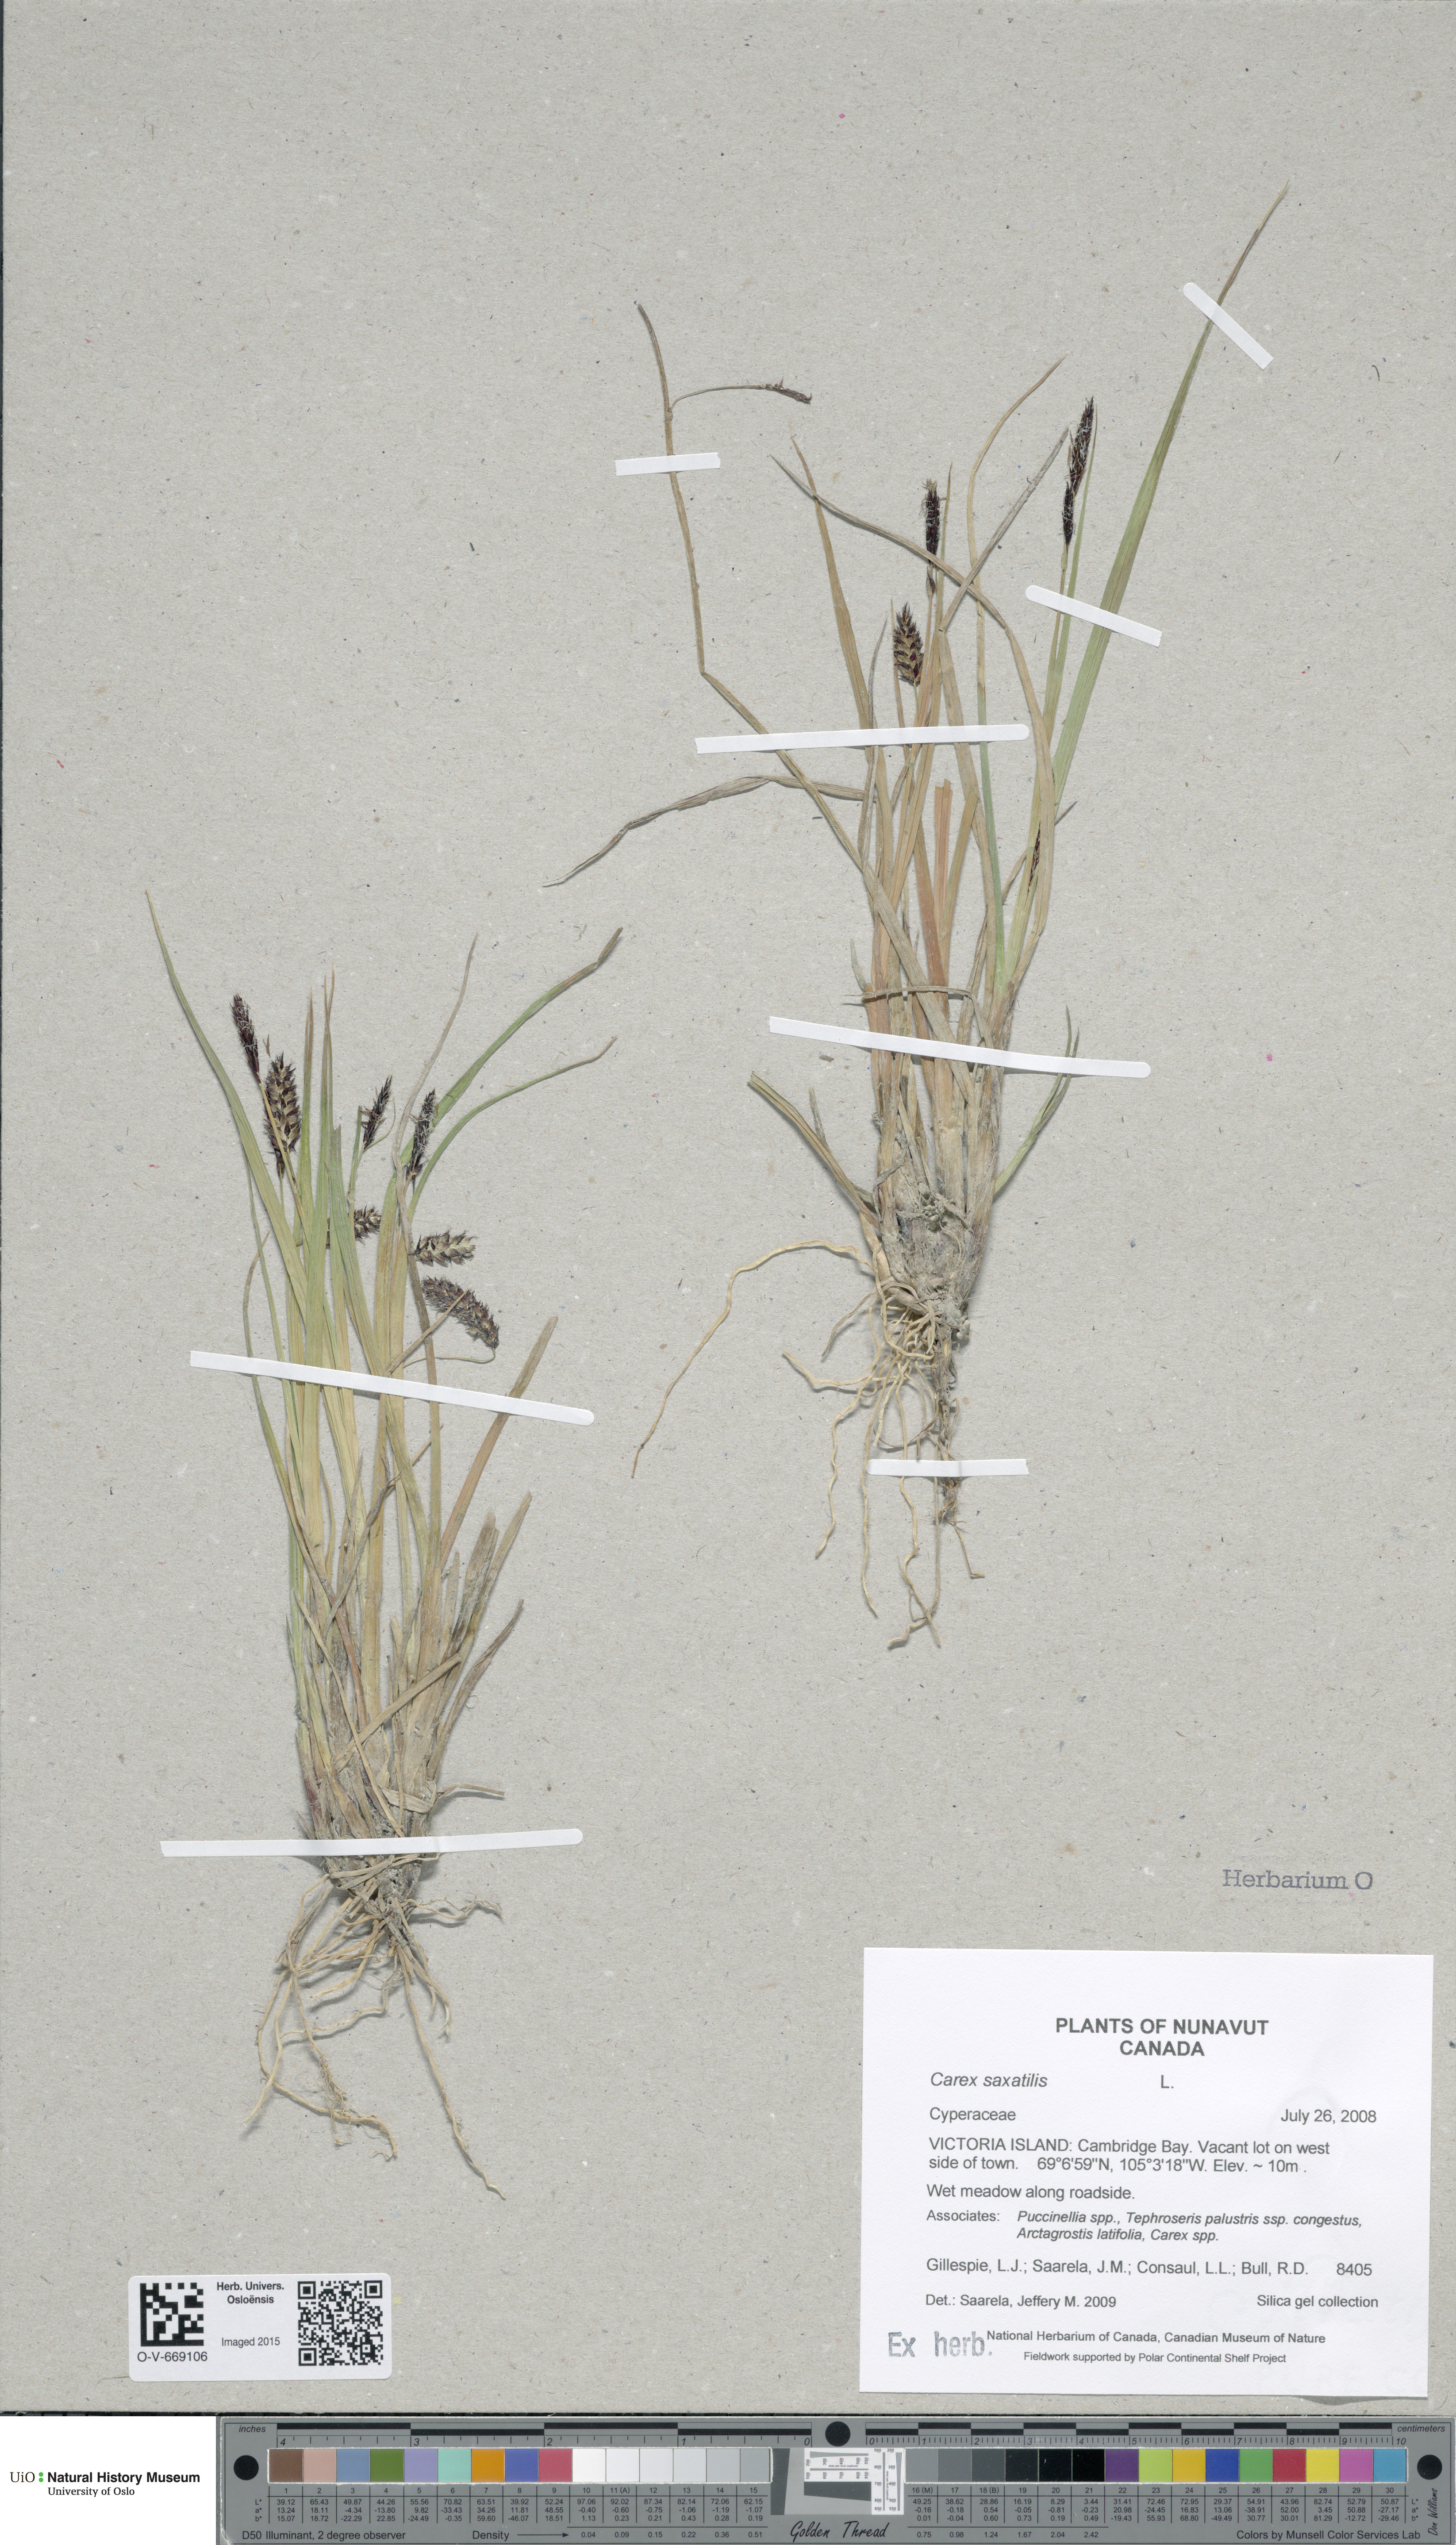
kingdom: Plantae
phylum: Tracheophyta
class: Liliopsida
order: Poales
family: Cyperaceae
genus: Carex
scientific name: Carex saxatilis
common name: Russet sedge
